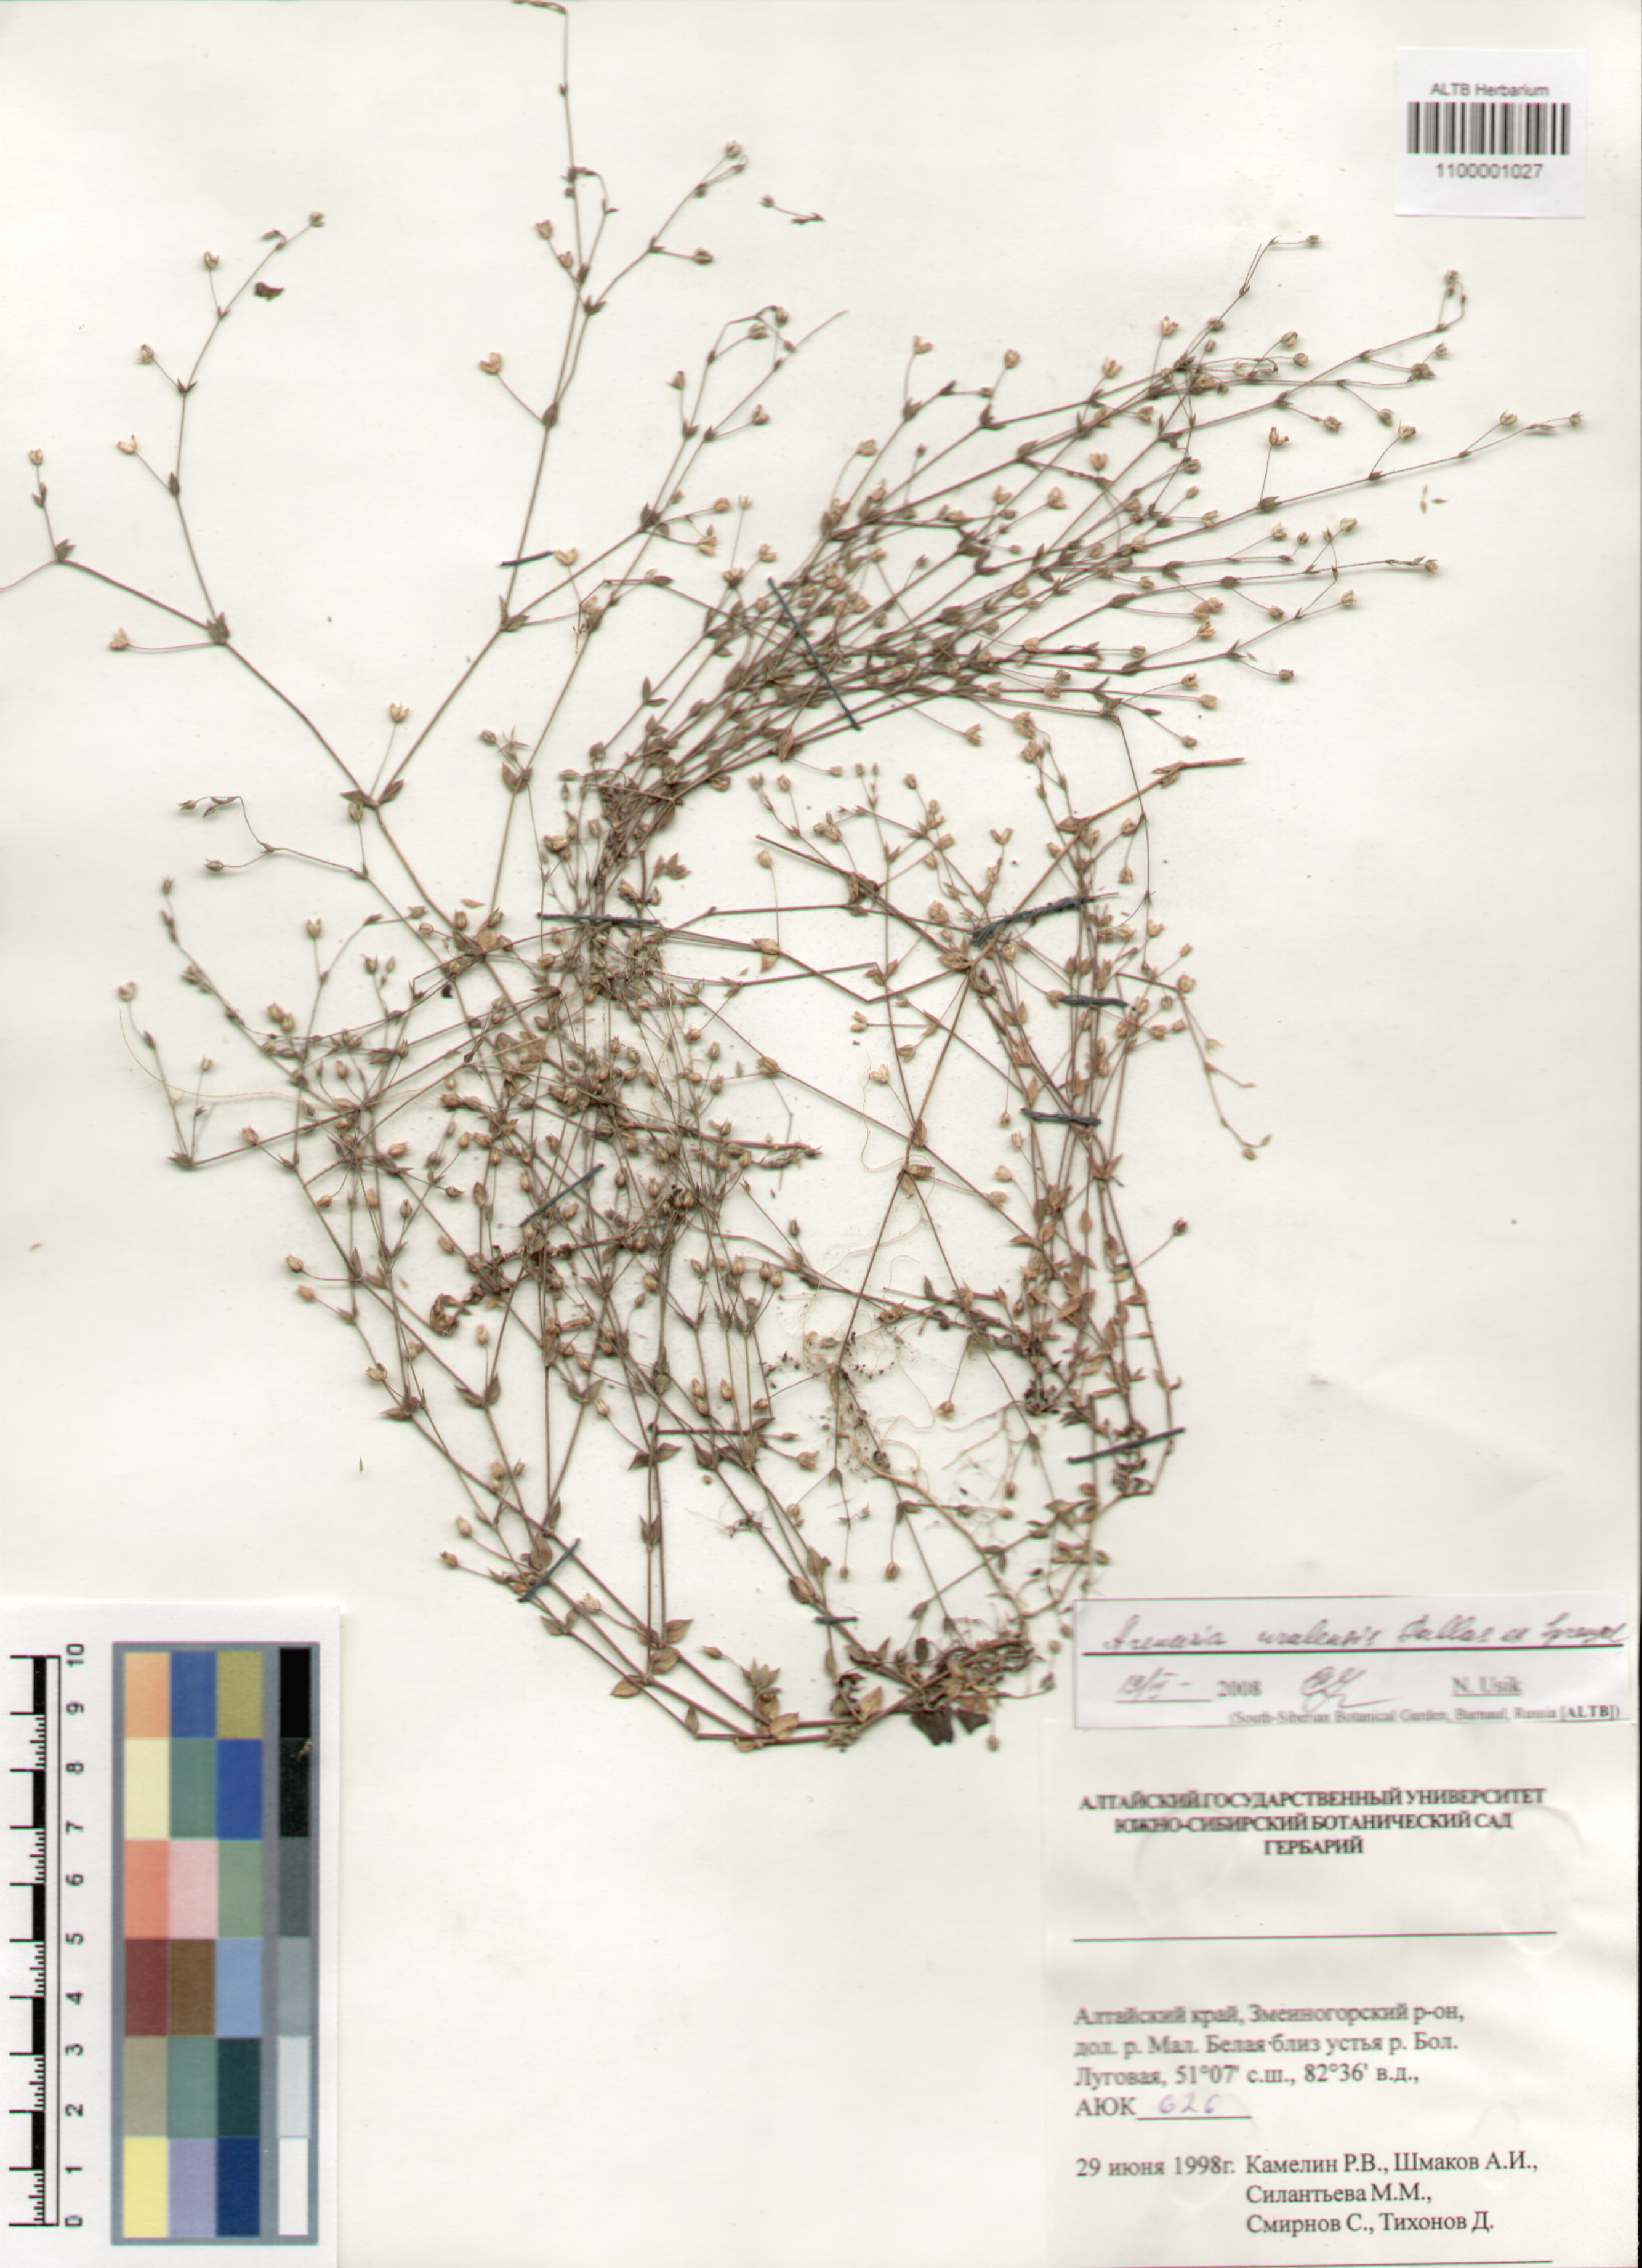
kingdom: Plantae
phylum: Tracheophyta
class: Magnoliopsida
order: Caryophyllales
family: Caryophyllaceae
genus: Arenaria
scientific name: Arenaria serpyllifolia
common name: Thyme-leaved sandwort
